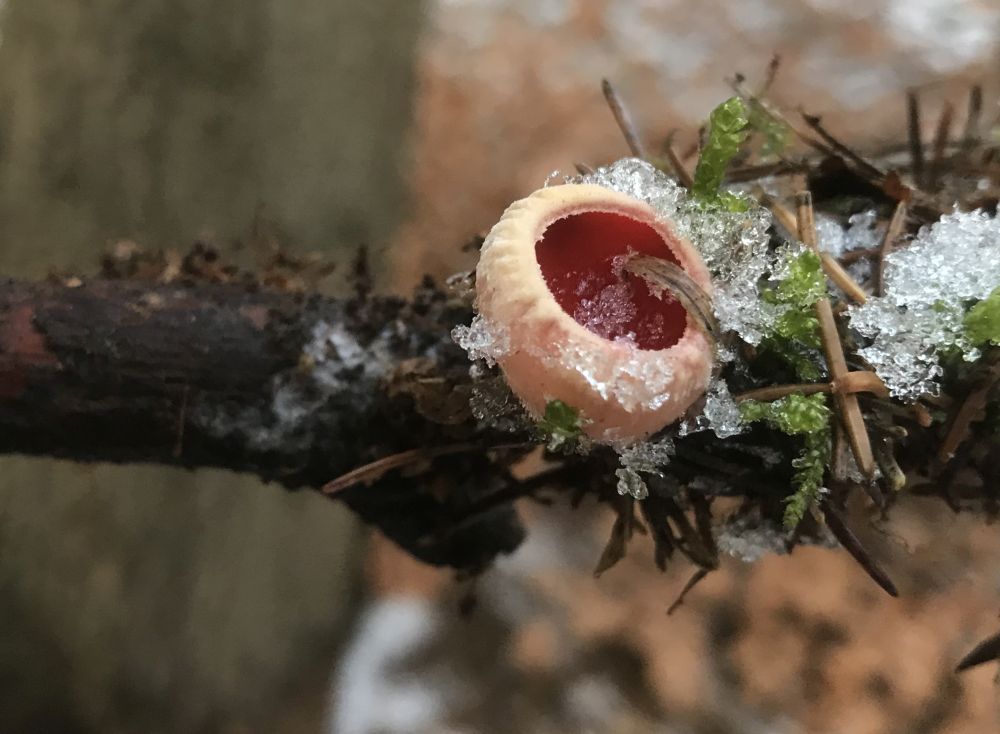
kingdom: Fungi
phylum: Ascomycota
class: Pezizomycetes
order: Pezizales
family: Sarcoscyphaceae
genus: Sarcoscypha
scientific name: Sarcoscypha austriaca
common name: krølhåret pragtbæger
